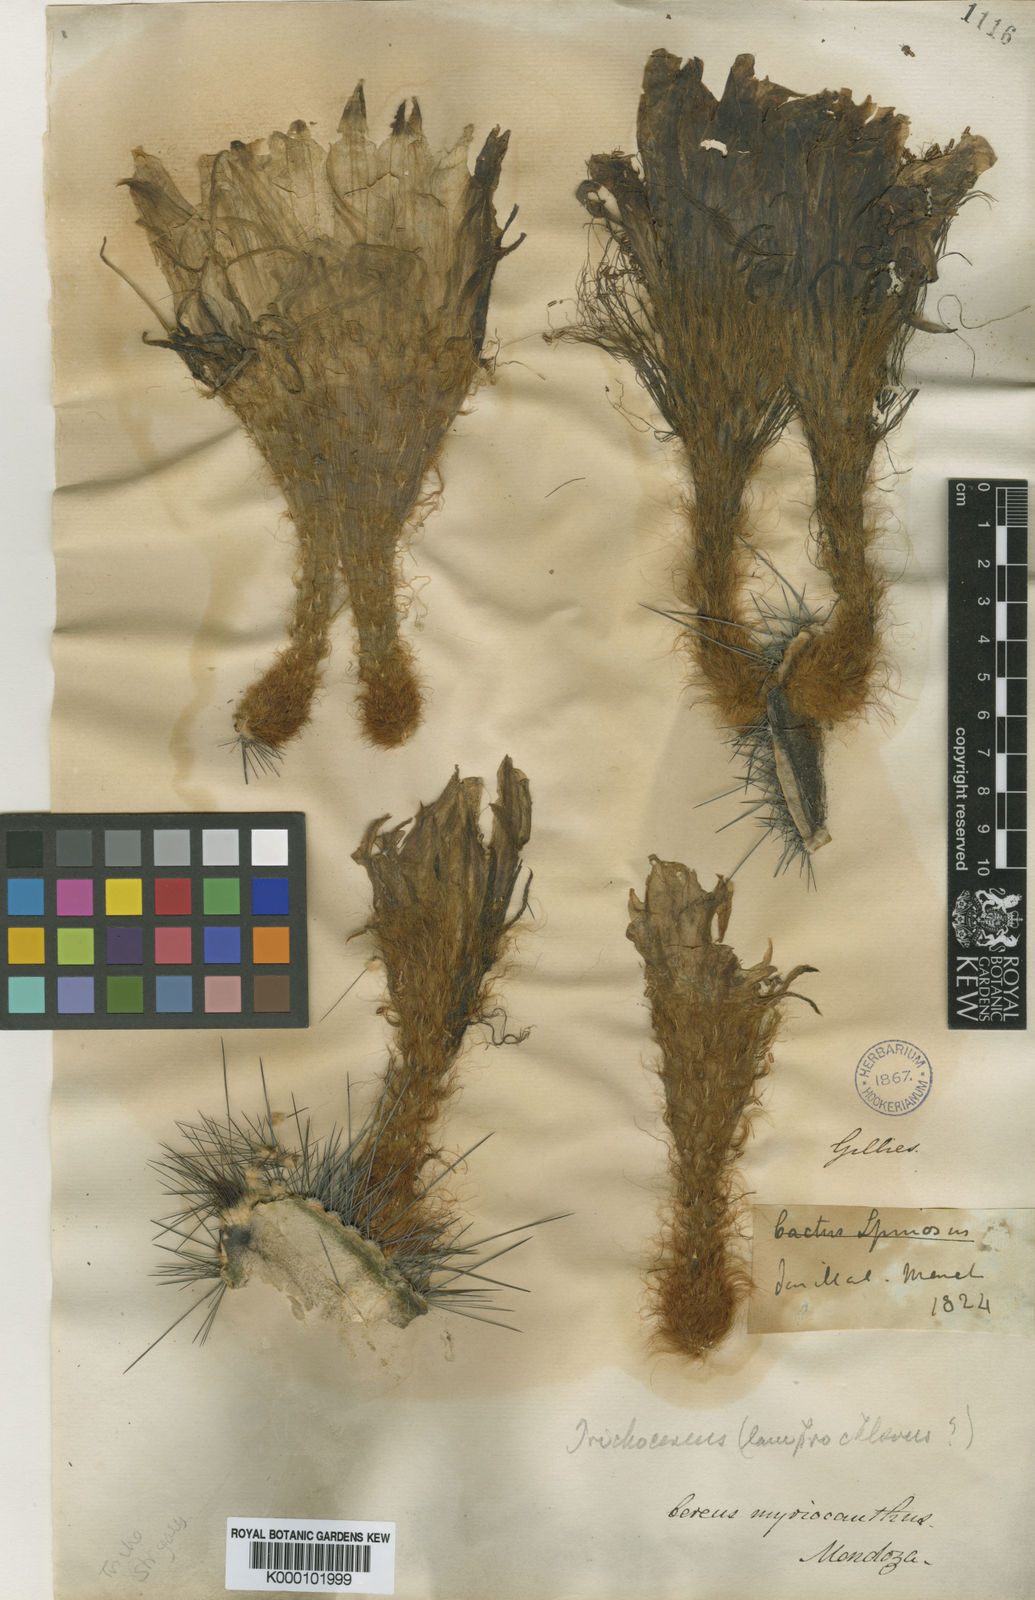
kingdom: Plantae
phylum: Tracheophyta
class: Magnoliopsida
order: Caryophyllales
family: Cactaceae
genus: Soehrensia
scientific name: Soehrensia strigosa
